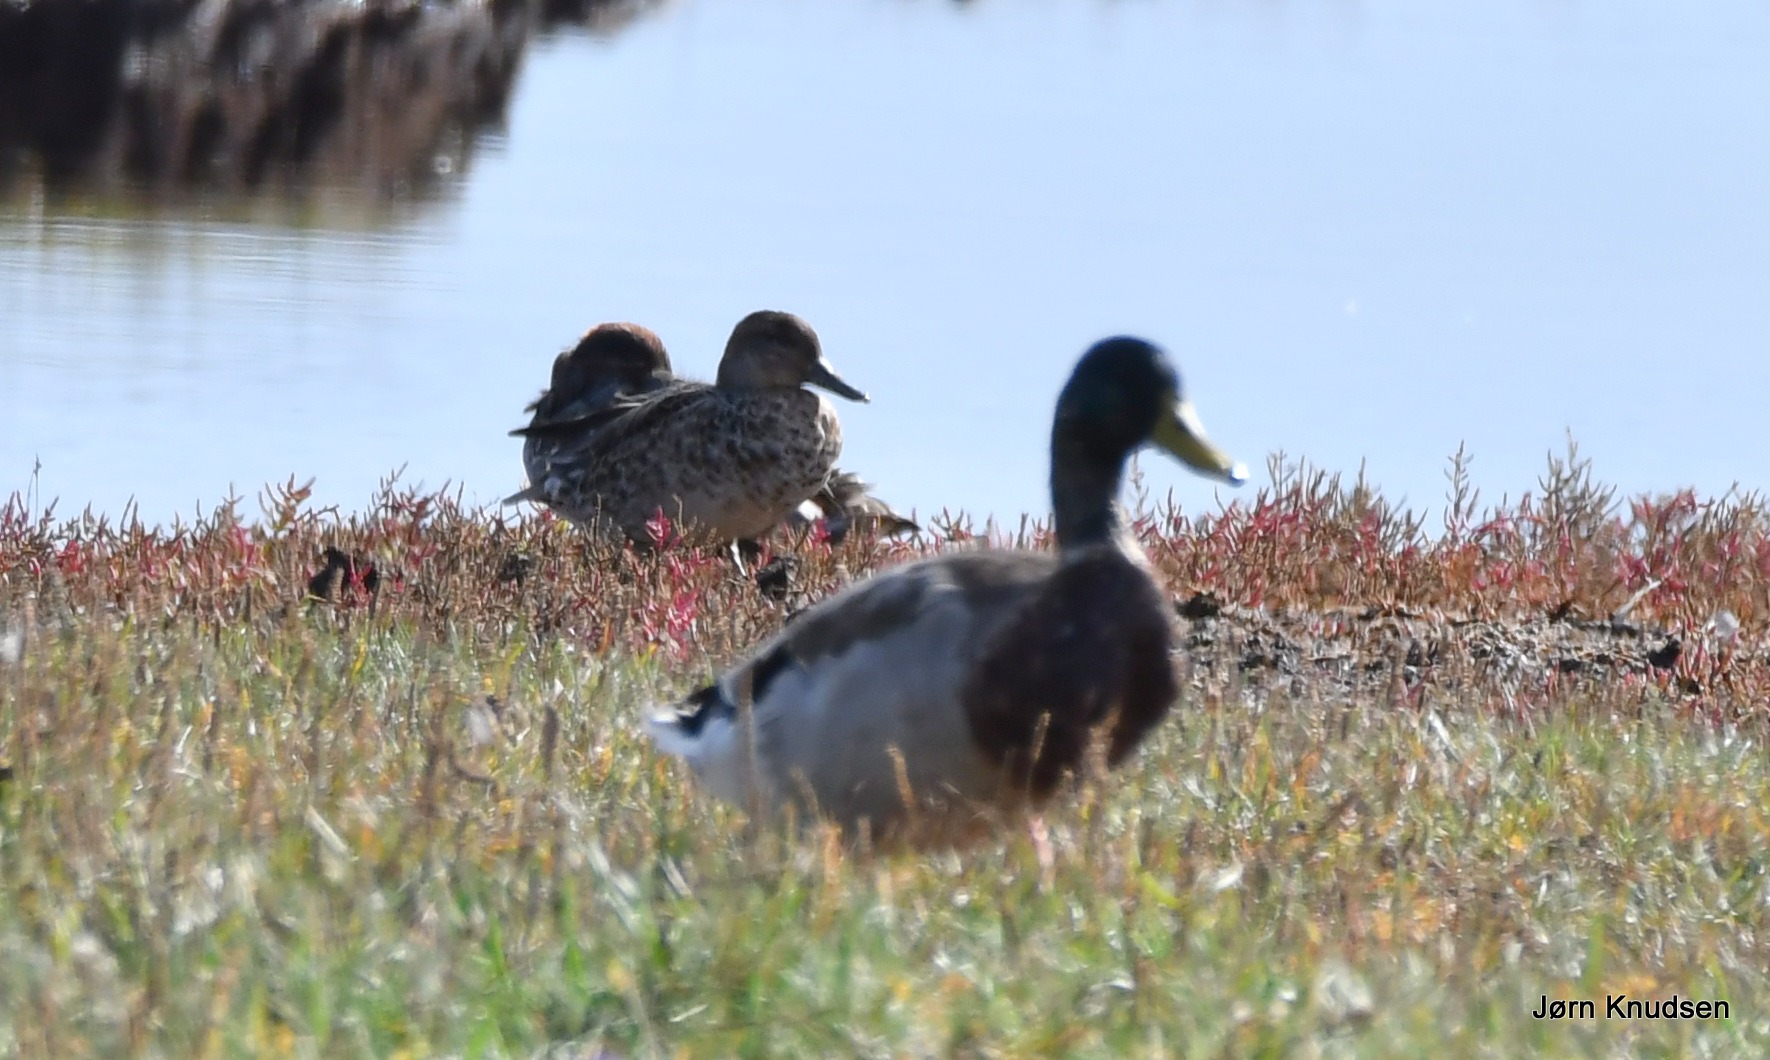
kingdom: Animalia
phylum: Chordata
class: Aves
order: Anseriformes
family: Anatidae
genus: Anas
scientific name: Anas platyrhynchos
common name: Gråand
